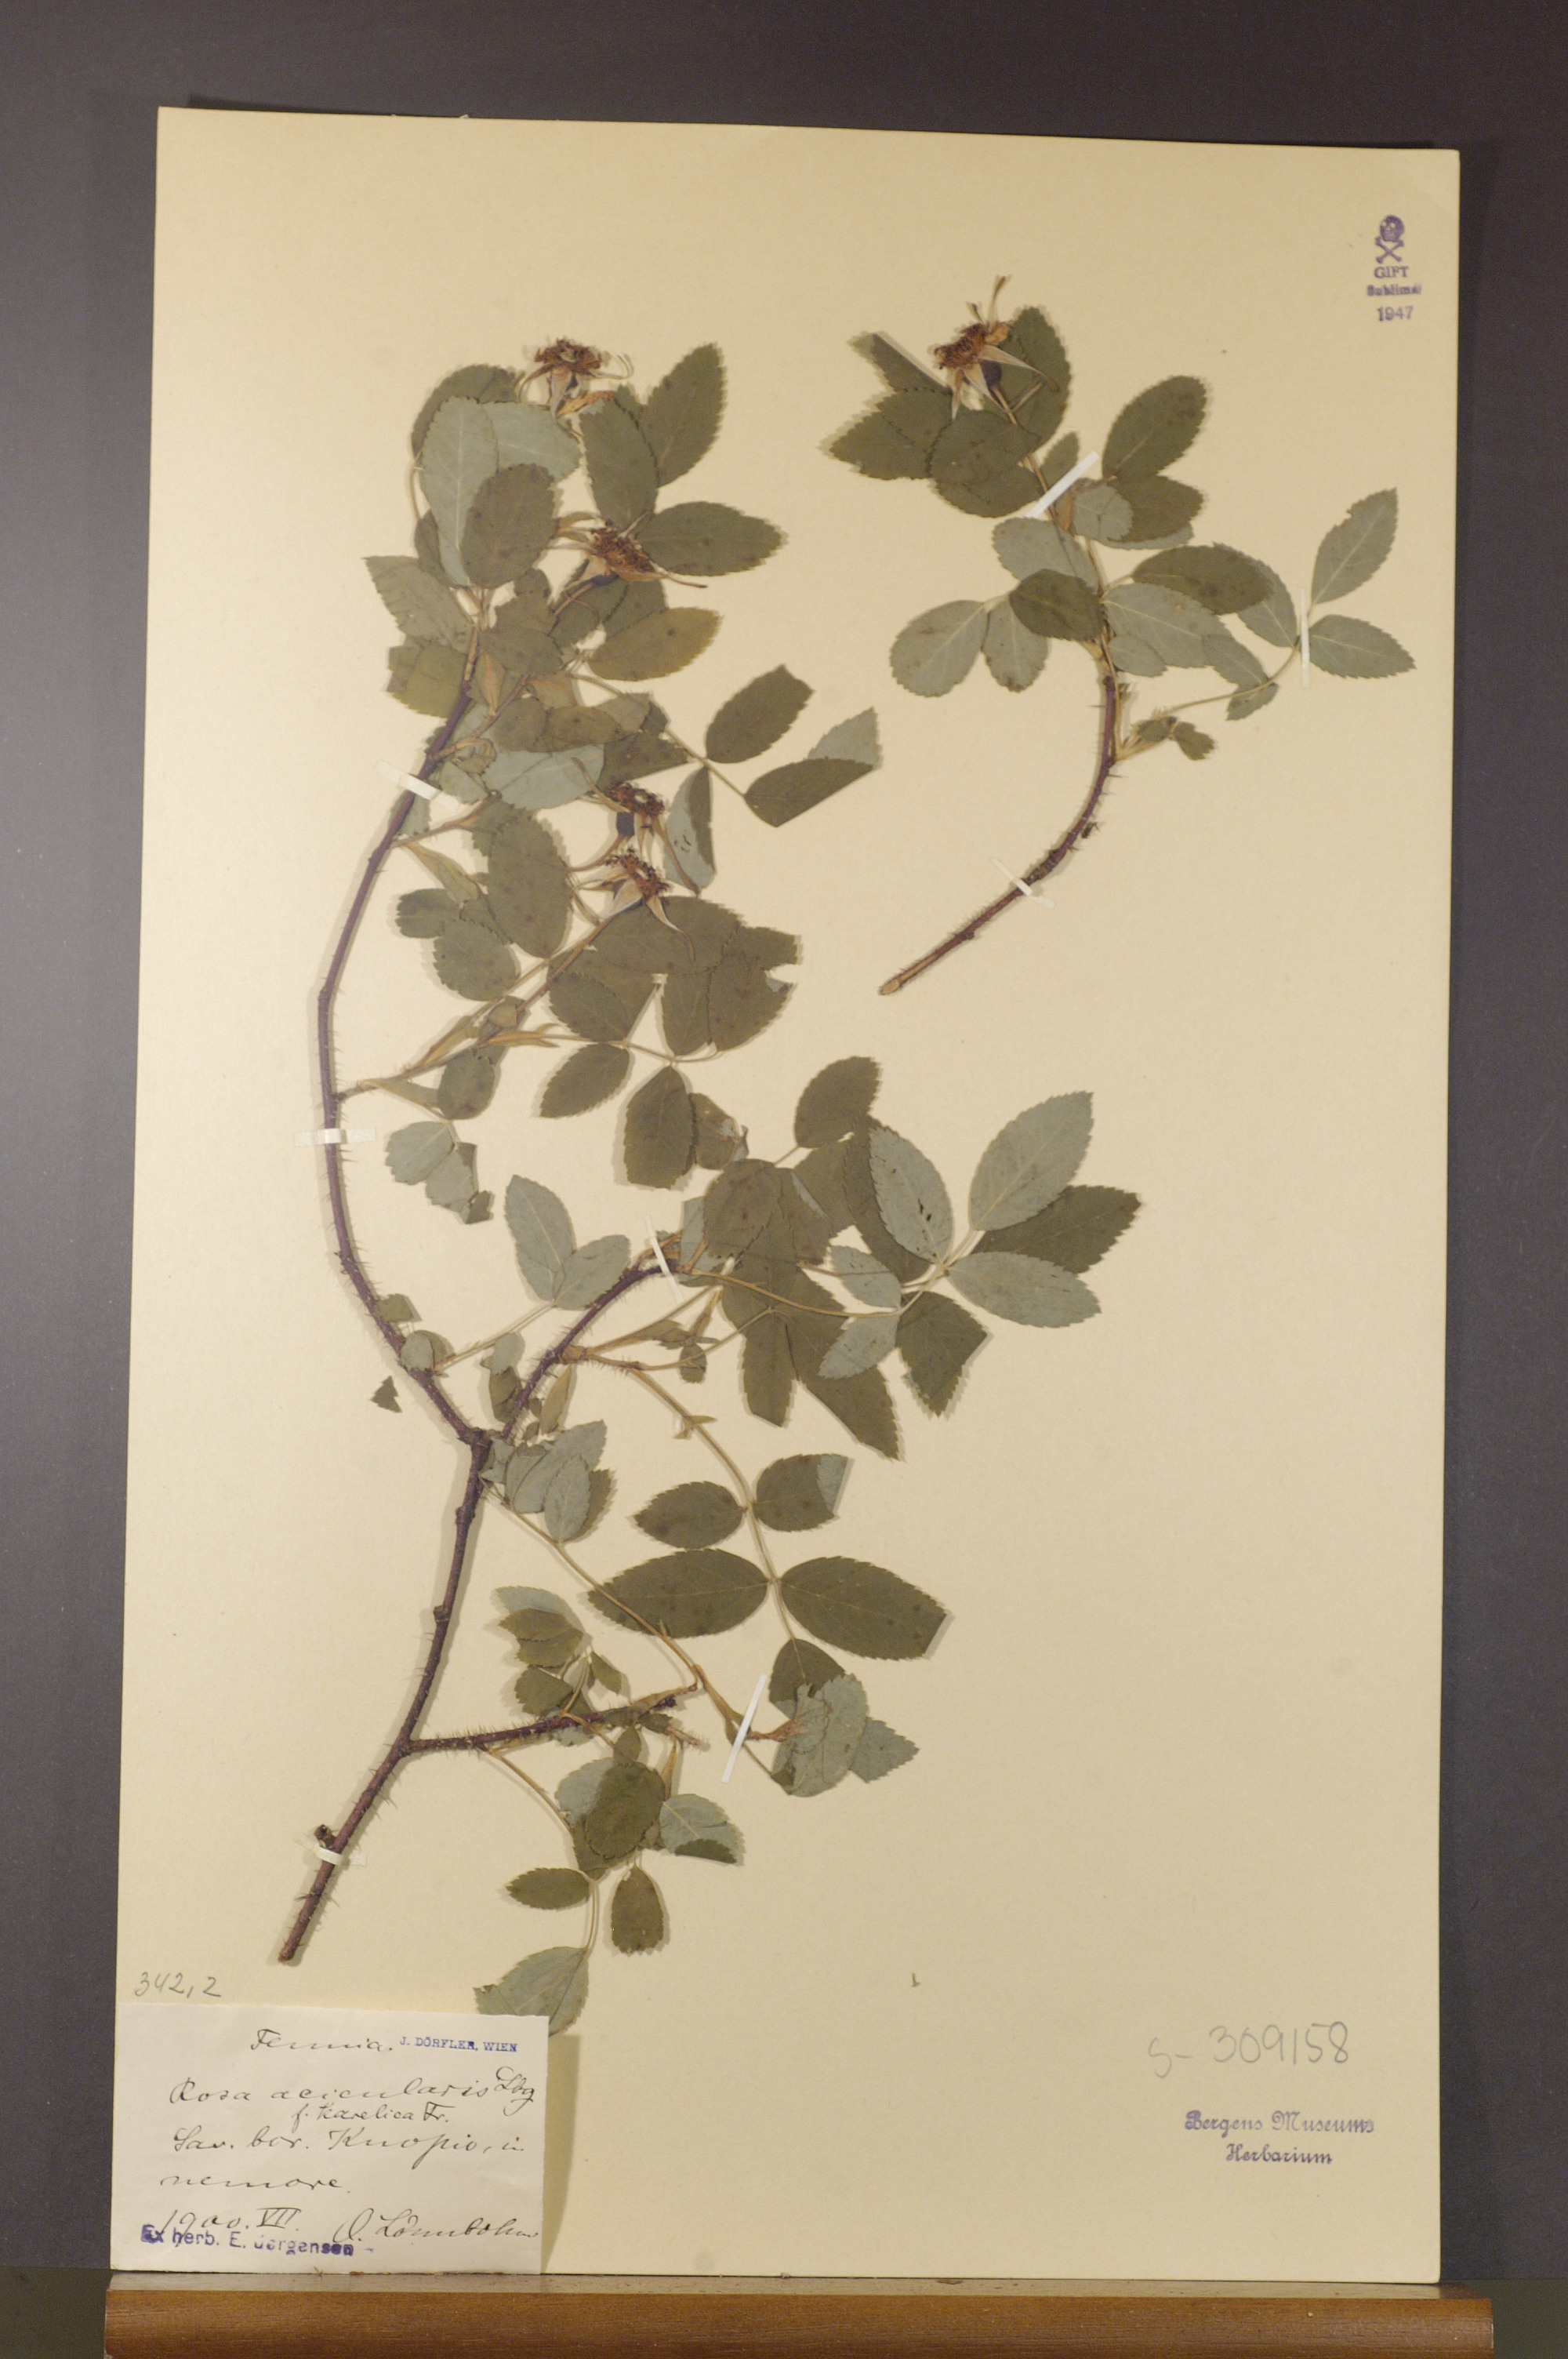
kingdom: Plantae
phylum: Tracheophyta
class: Magnoliopsida
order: Rosales
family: Rosaceae
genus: Rosa
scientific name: Rosa acicularis
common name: Prickly rose
